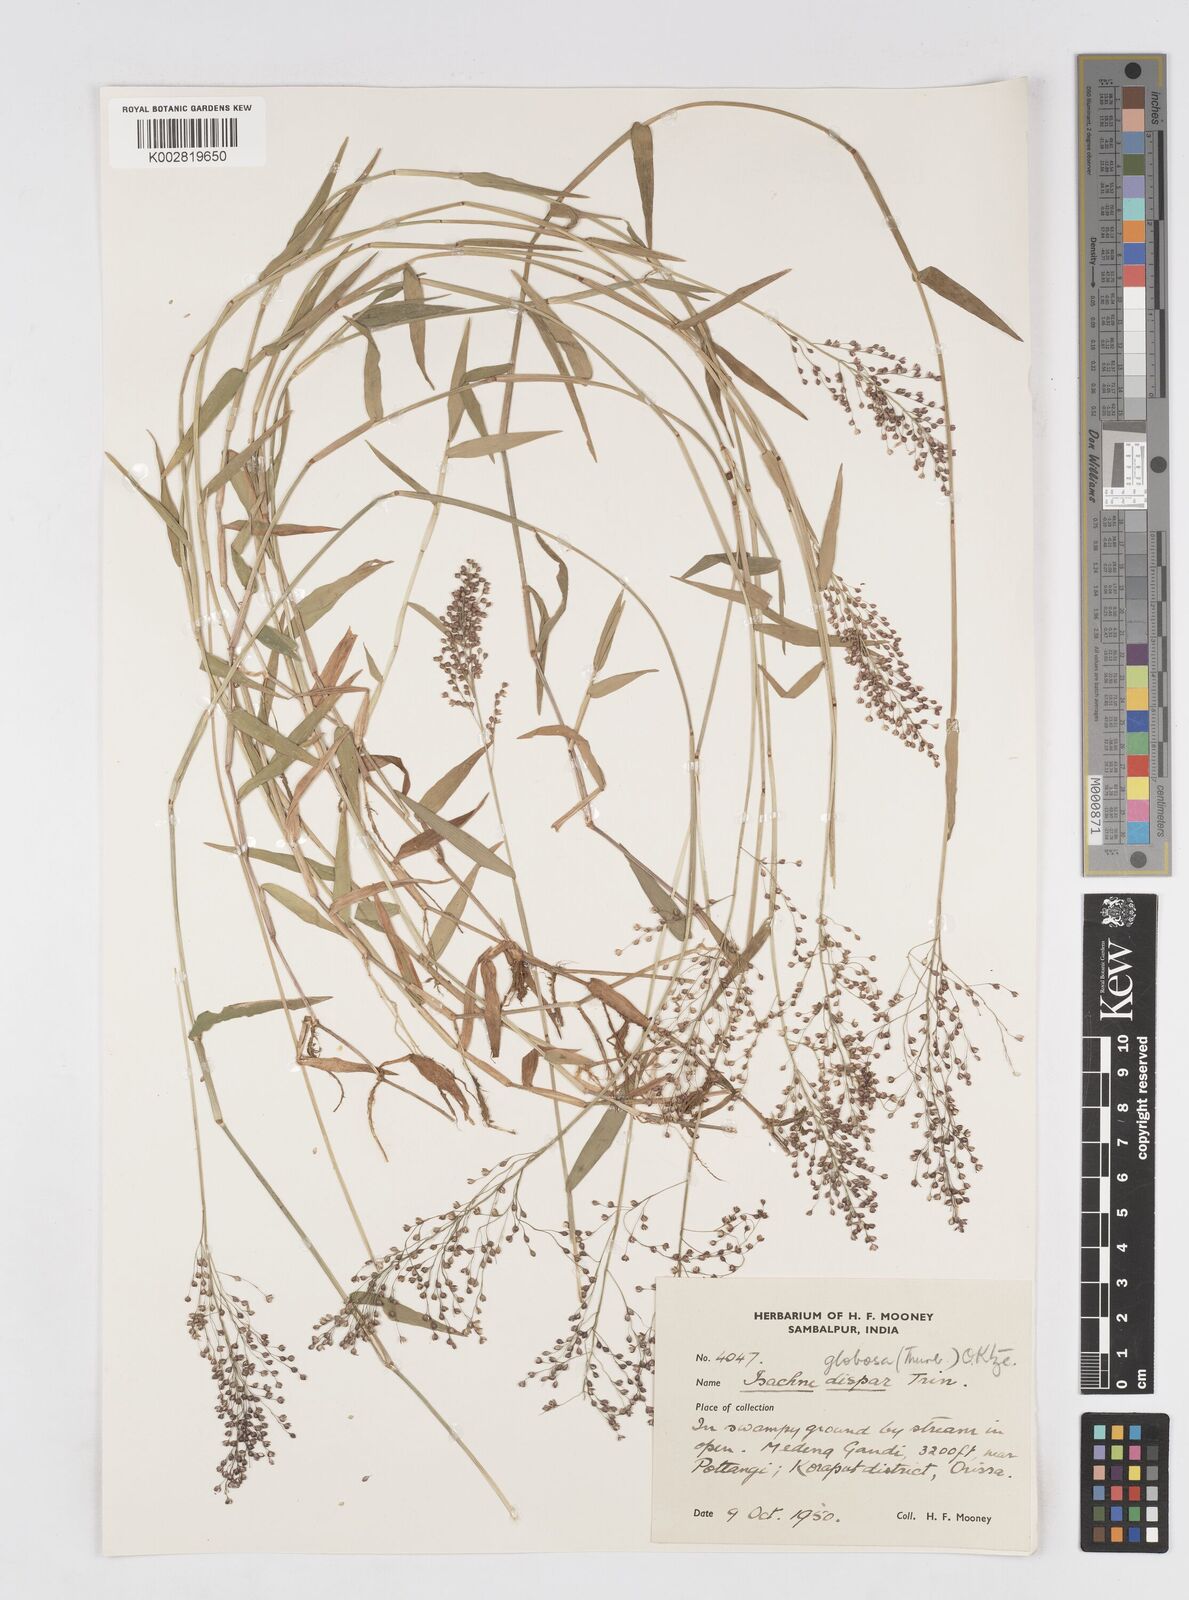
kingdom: Plantae
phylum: Tracheophyta
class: Liliopsida
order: Poales
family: Poaceae
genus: Isachne
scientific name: Isachne globosa
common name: Swamp millet
